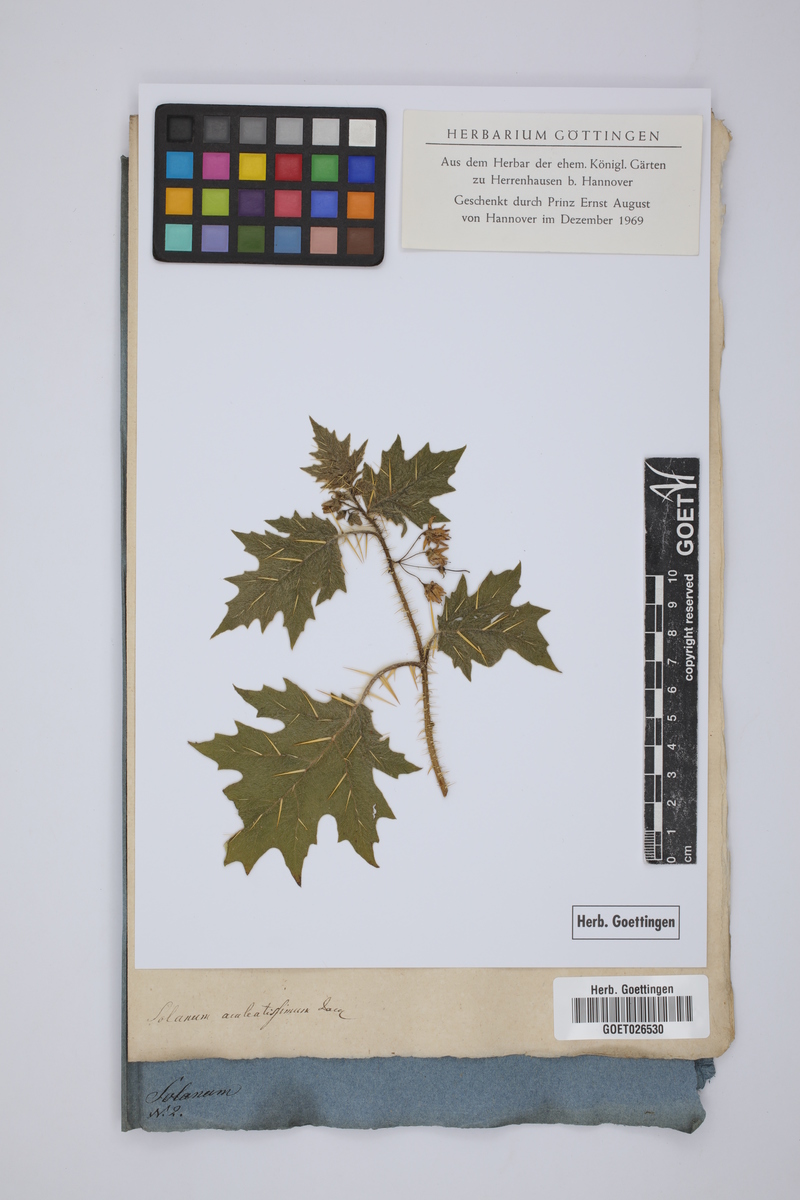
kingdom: Plantae
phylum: Tracheophyta
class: Magnoliopsida
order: Solanales
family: Solanaceae
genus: Solanum
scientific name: Solanum aculeatissimum
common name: Dutch eggplant
